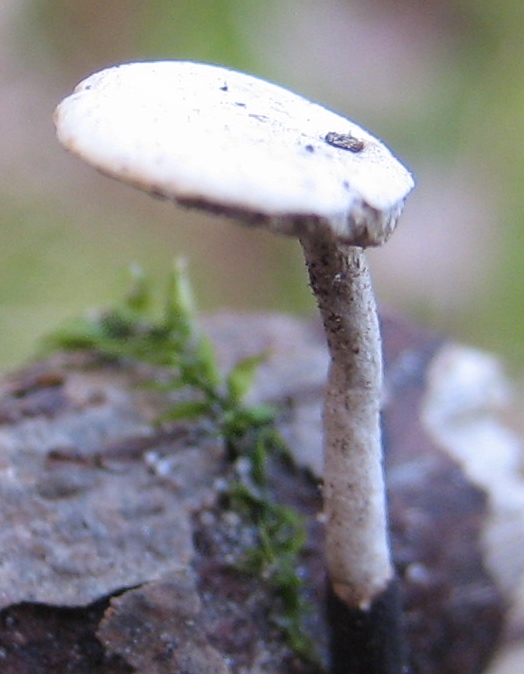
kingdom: Fungi
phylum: Basidiomycota
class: Agaricomycetes
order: Polyporales
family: Polyporaceae
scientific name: Polyporaceae
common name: poresvampfamilien
